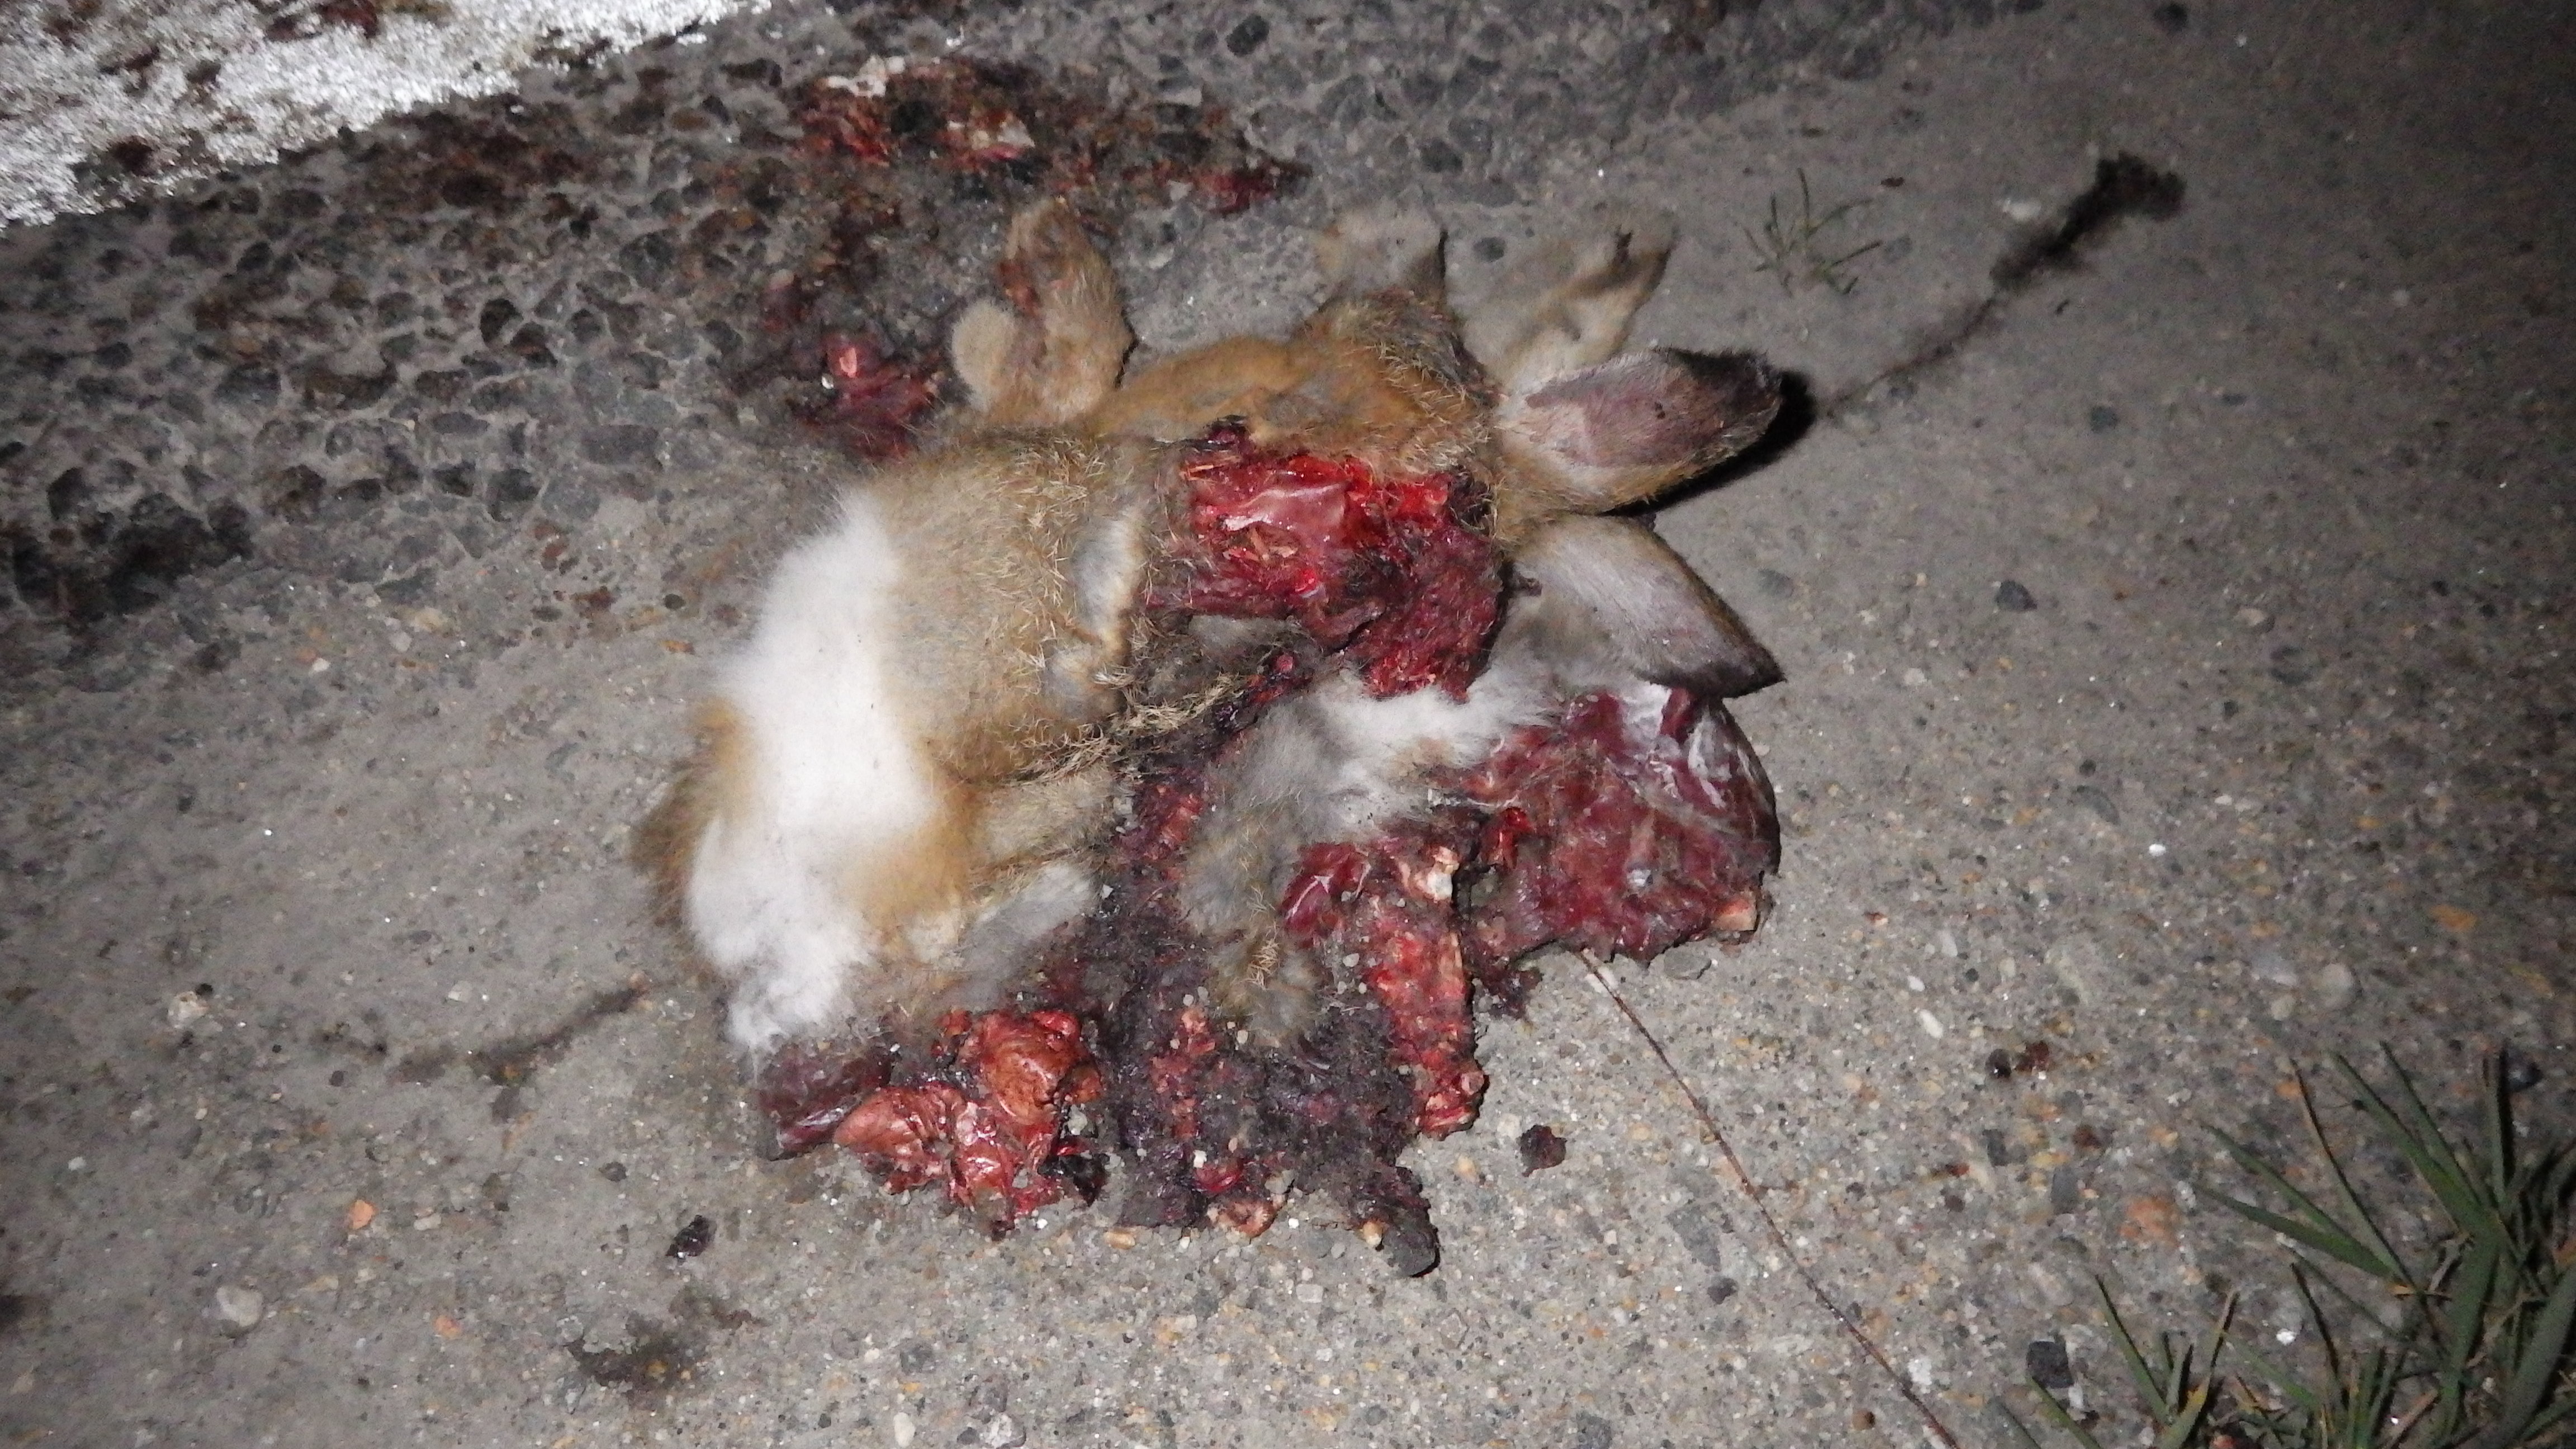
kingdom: Animalia
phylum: Chordata
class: Mammalia
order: Lagomorpha
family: Leporidae
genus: Oryctolagus
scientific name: Oryctolagus cuniculus
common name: European rabbit
